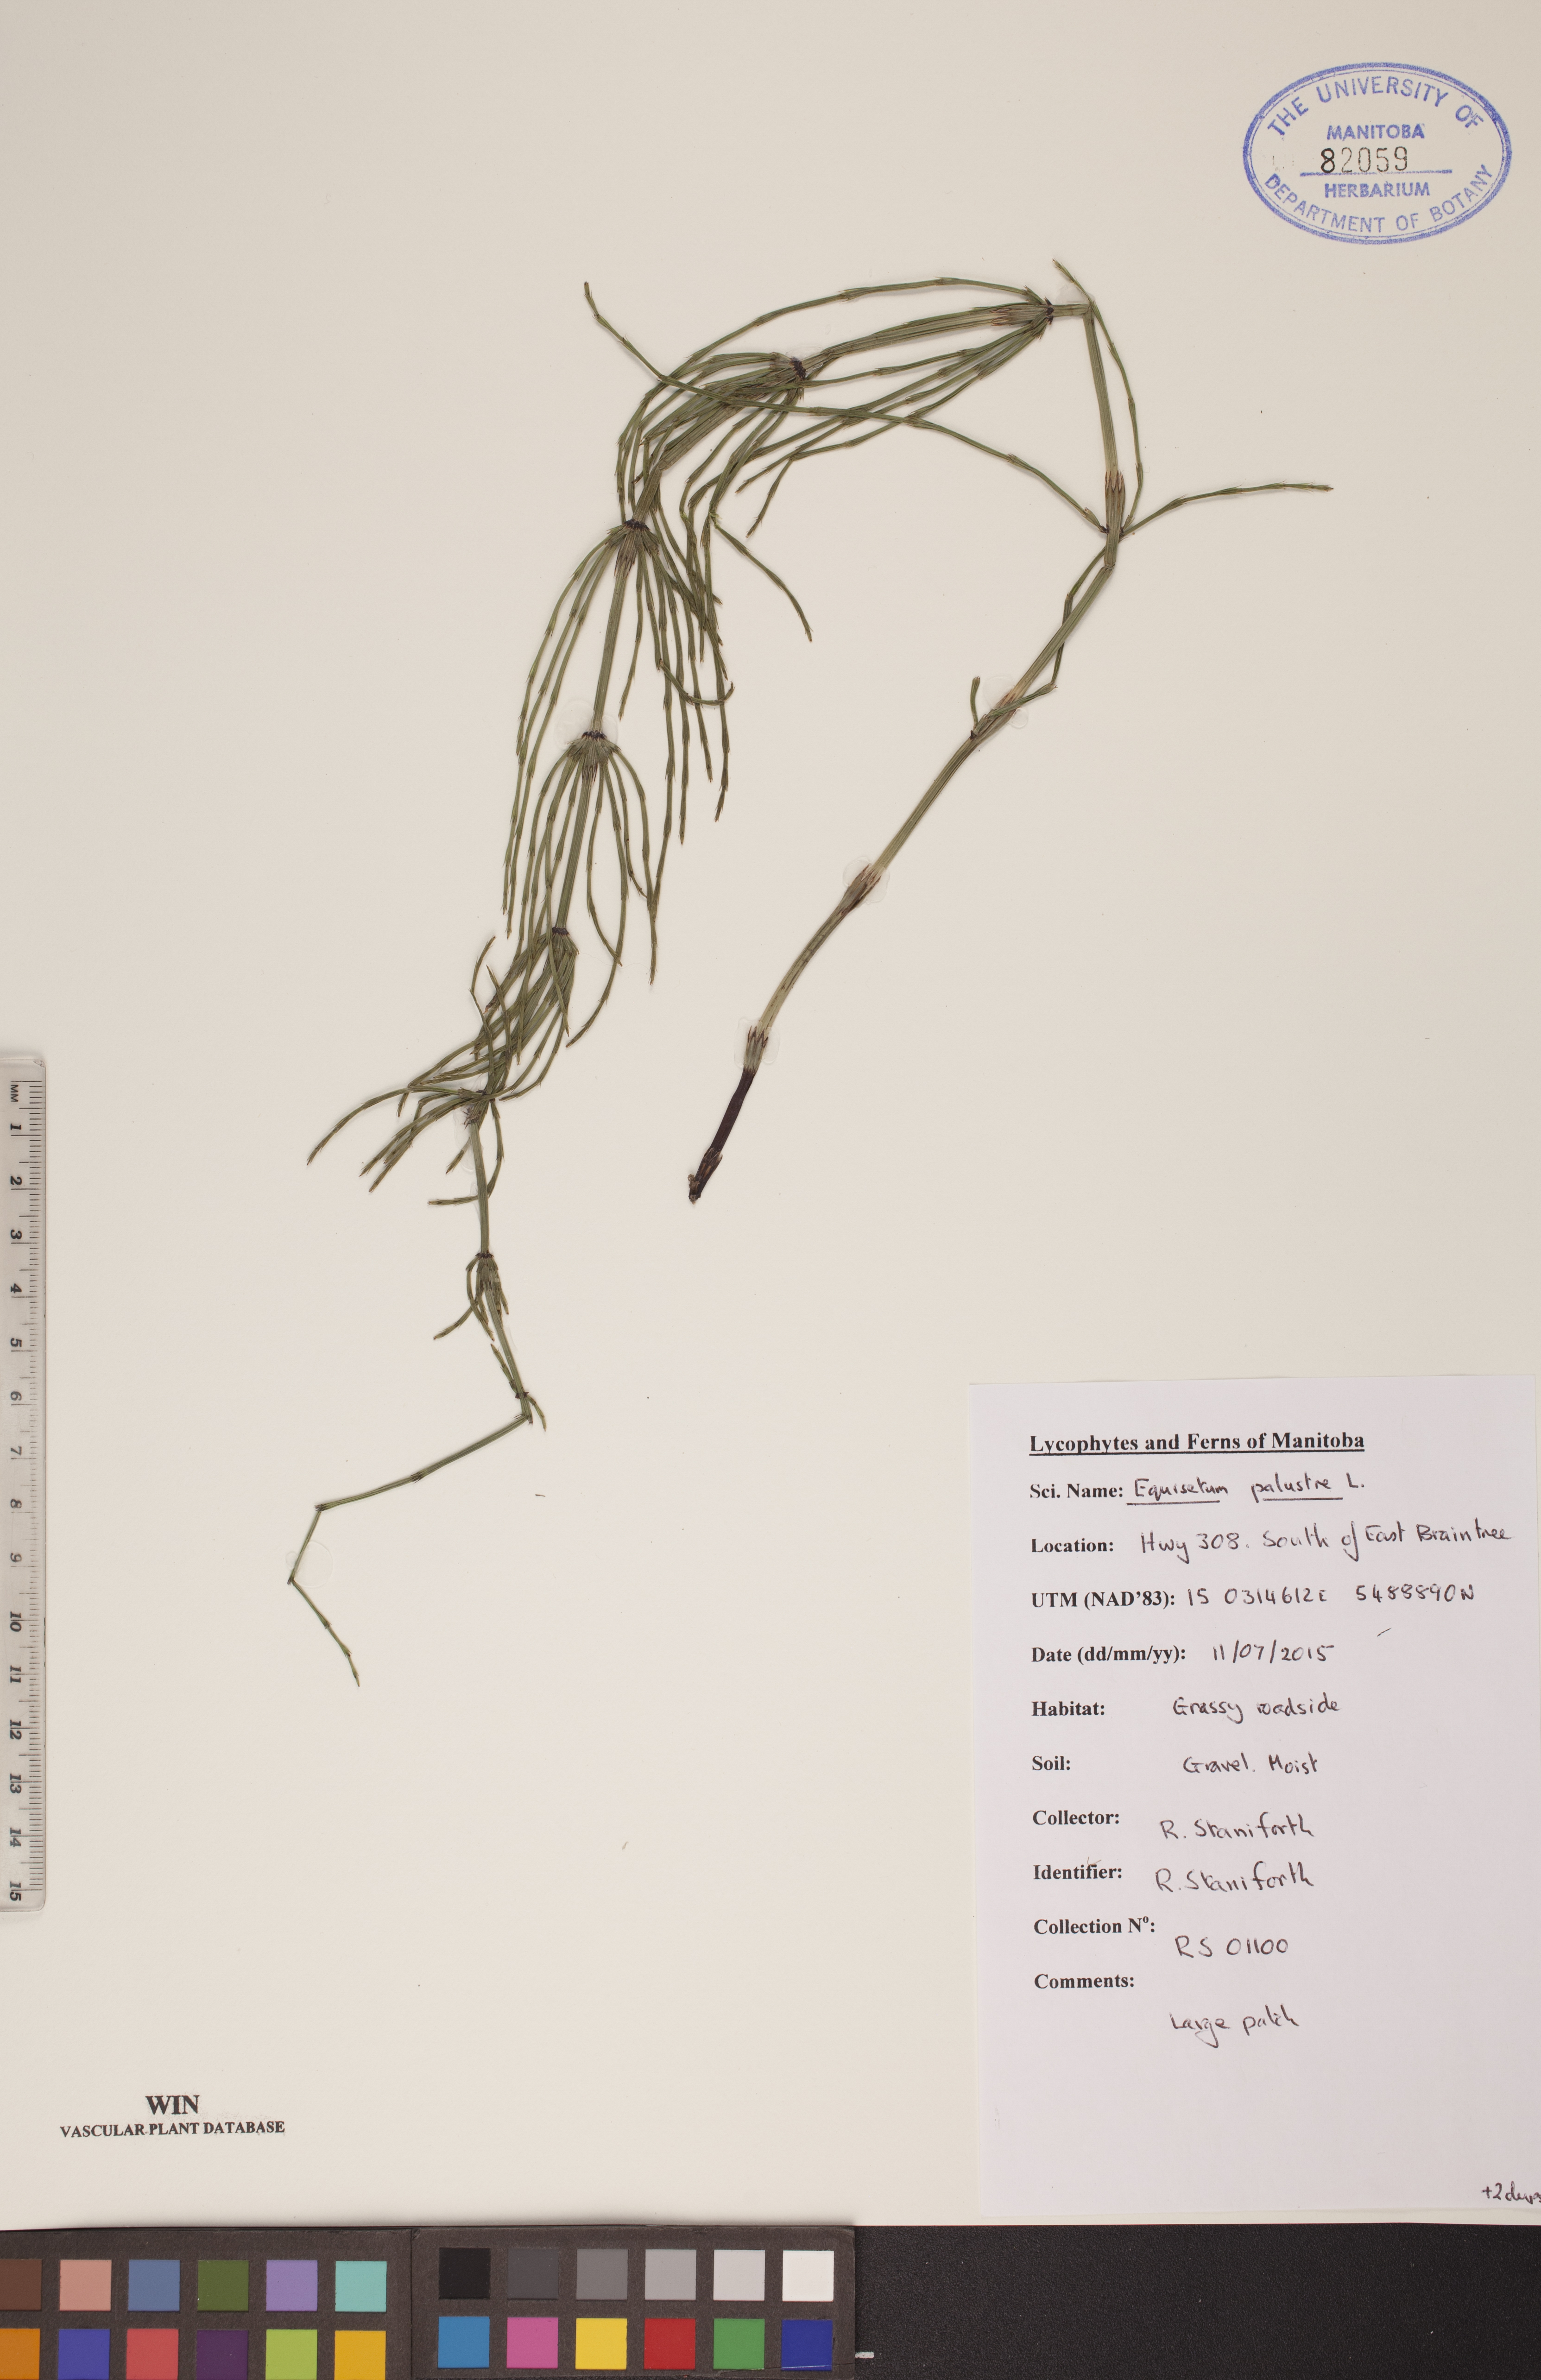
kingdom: Plantae
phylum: Tracheophyta
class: Polypodiopsida
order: Equisetales
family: Equisetaceae
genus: Equisetum
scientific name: Equisetum palustre
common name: Marsh horsetail
